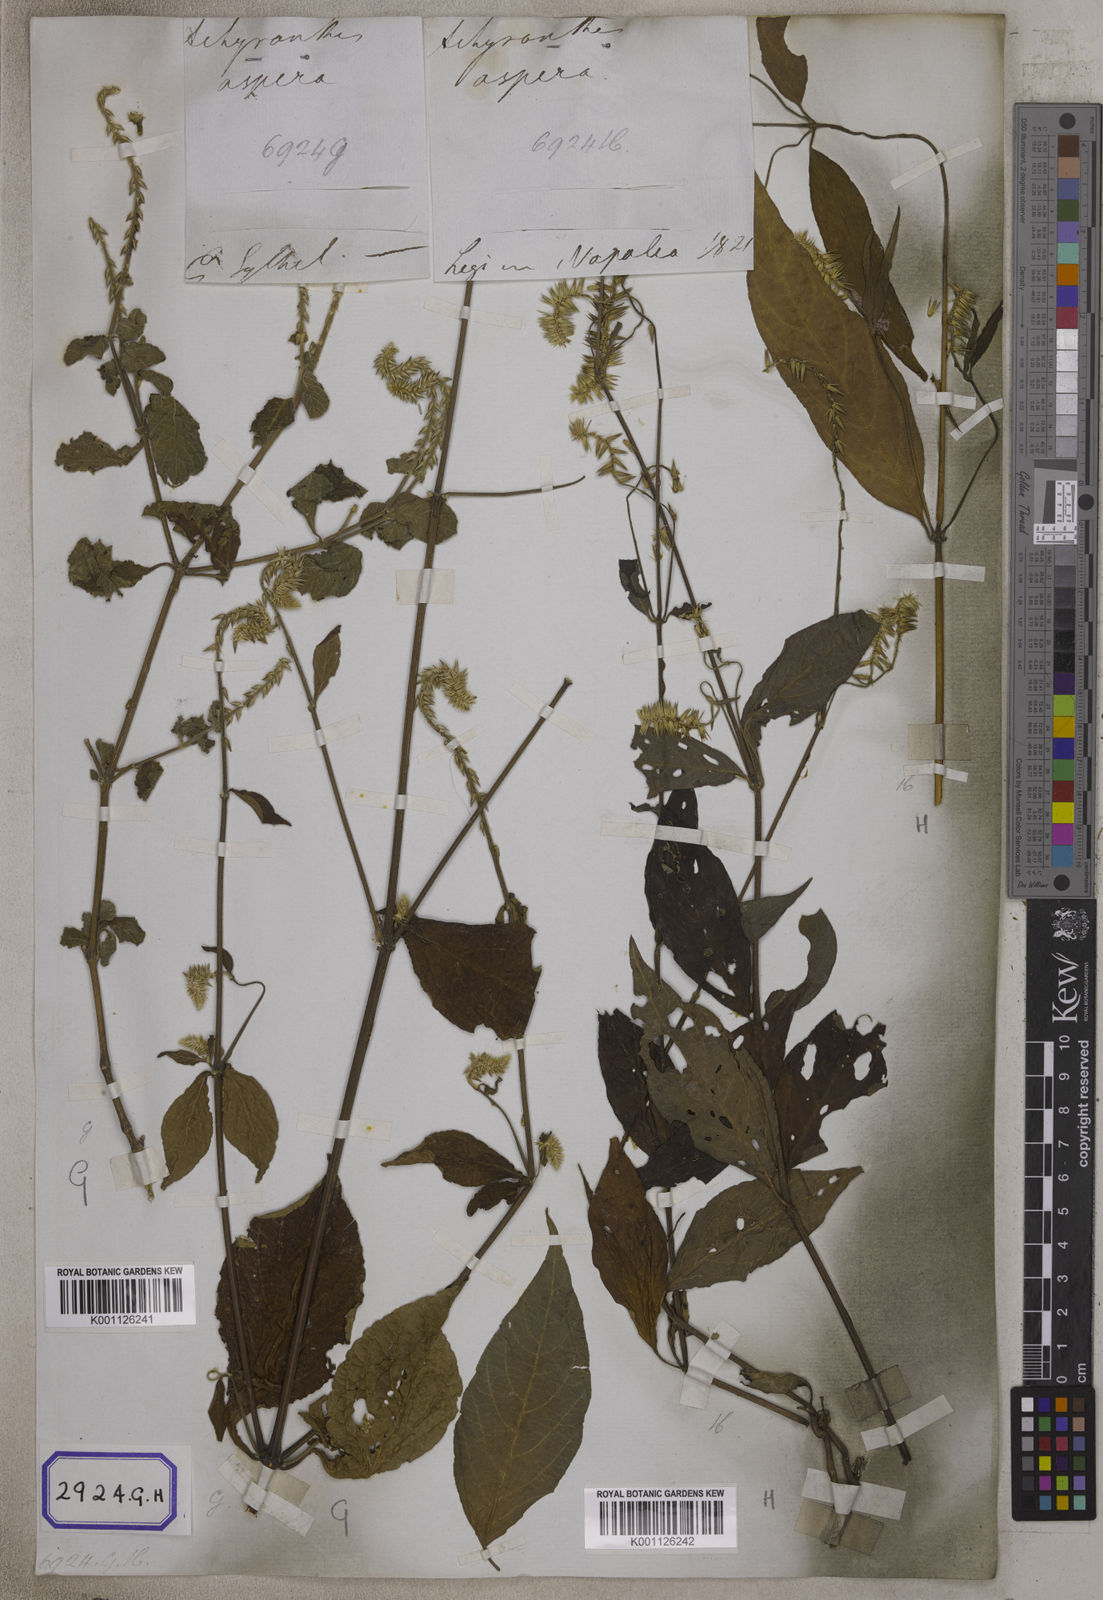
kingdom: Plantae
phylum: Tracheophyta
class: Magnoliopsida
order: Caryophyllales
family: Amaranthaceae
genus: Achyranthes
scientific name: Achyranthes
